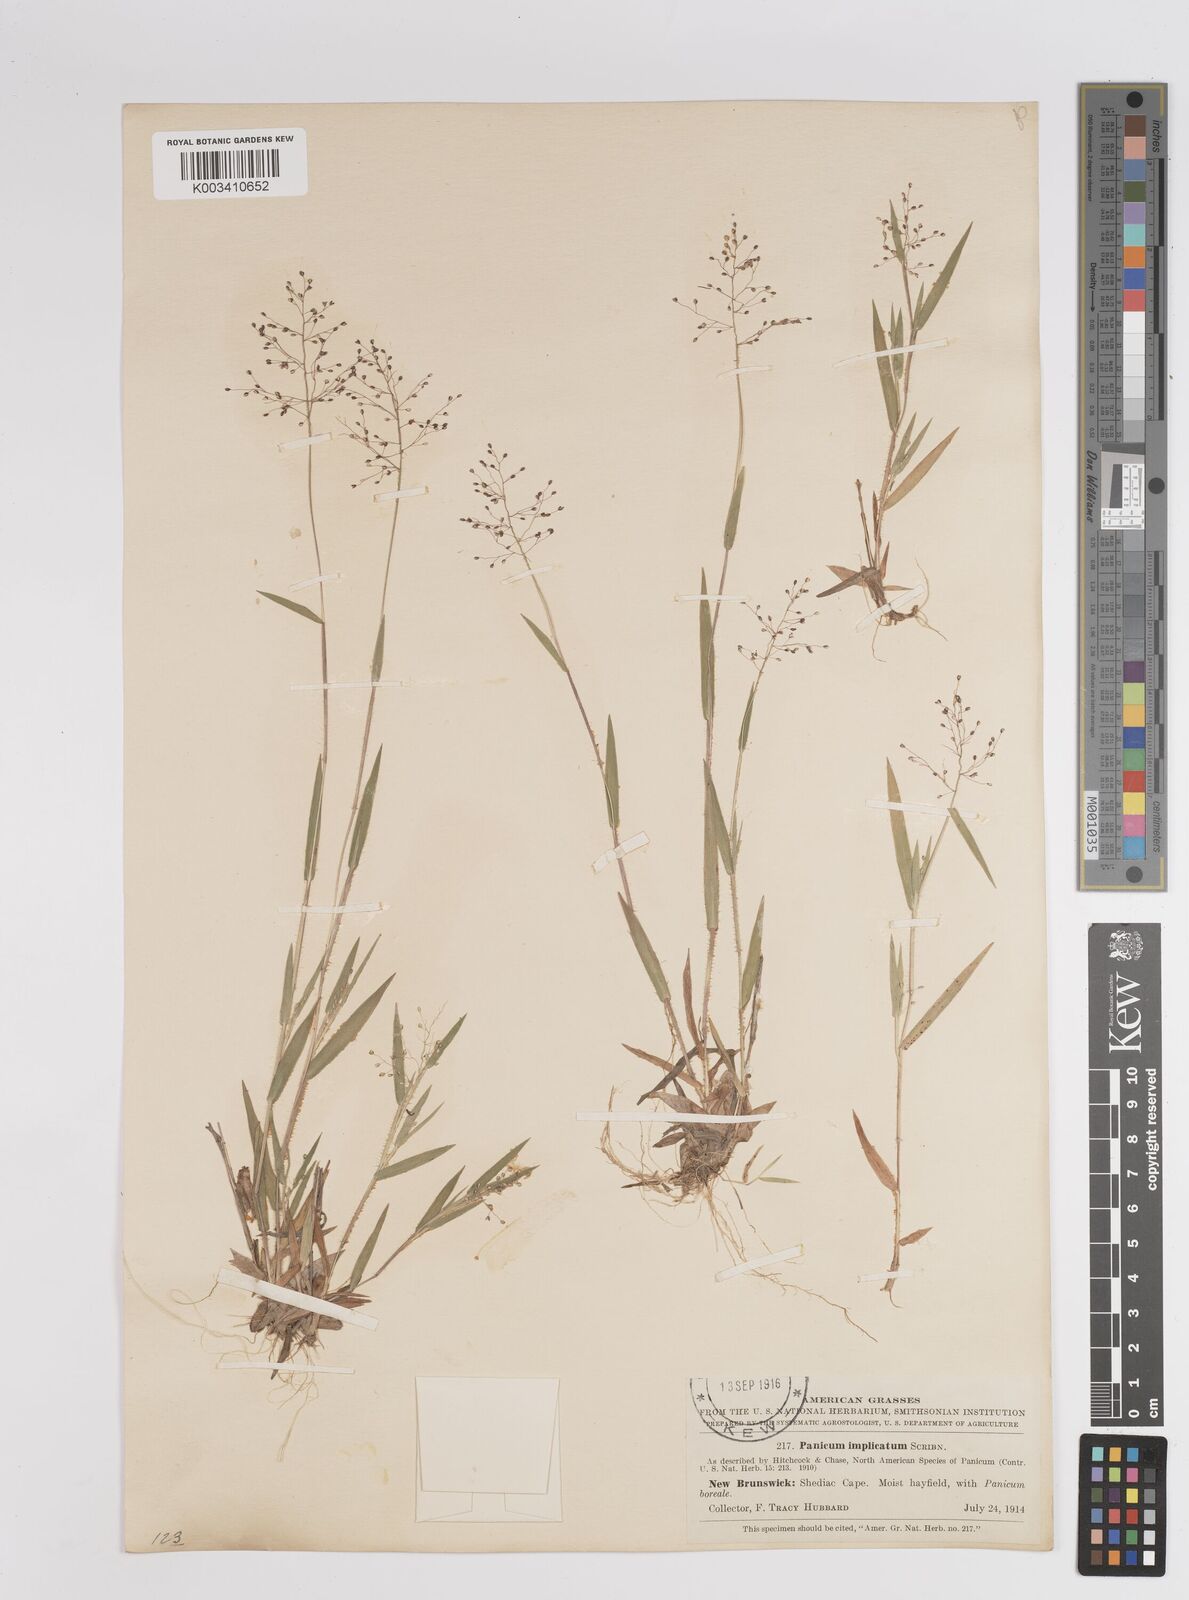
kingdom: Plantae
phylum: Tracheophyta
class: Liliopsida
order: Poales
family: Poaceae
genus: Dichanthelium
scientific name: Dichanthelium implicatum
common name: Slender-stemmed panicgrass
